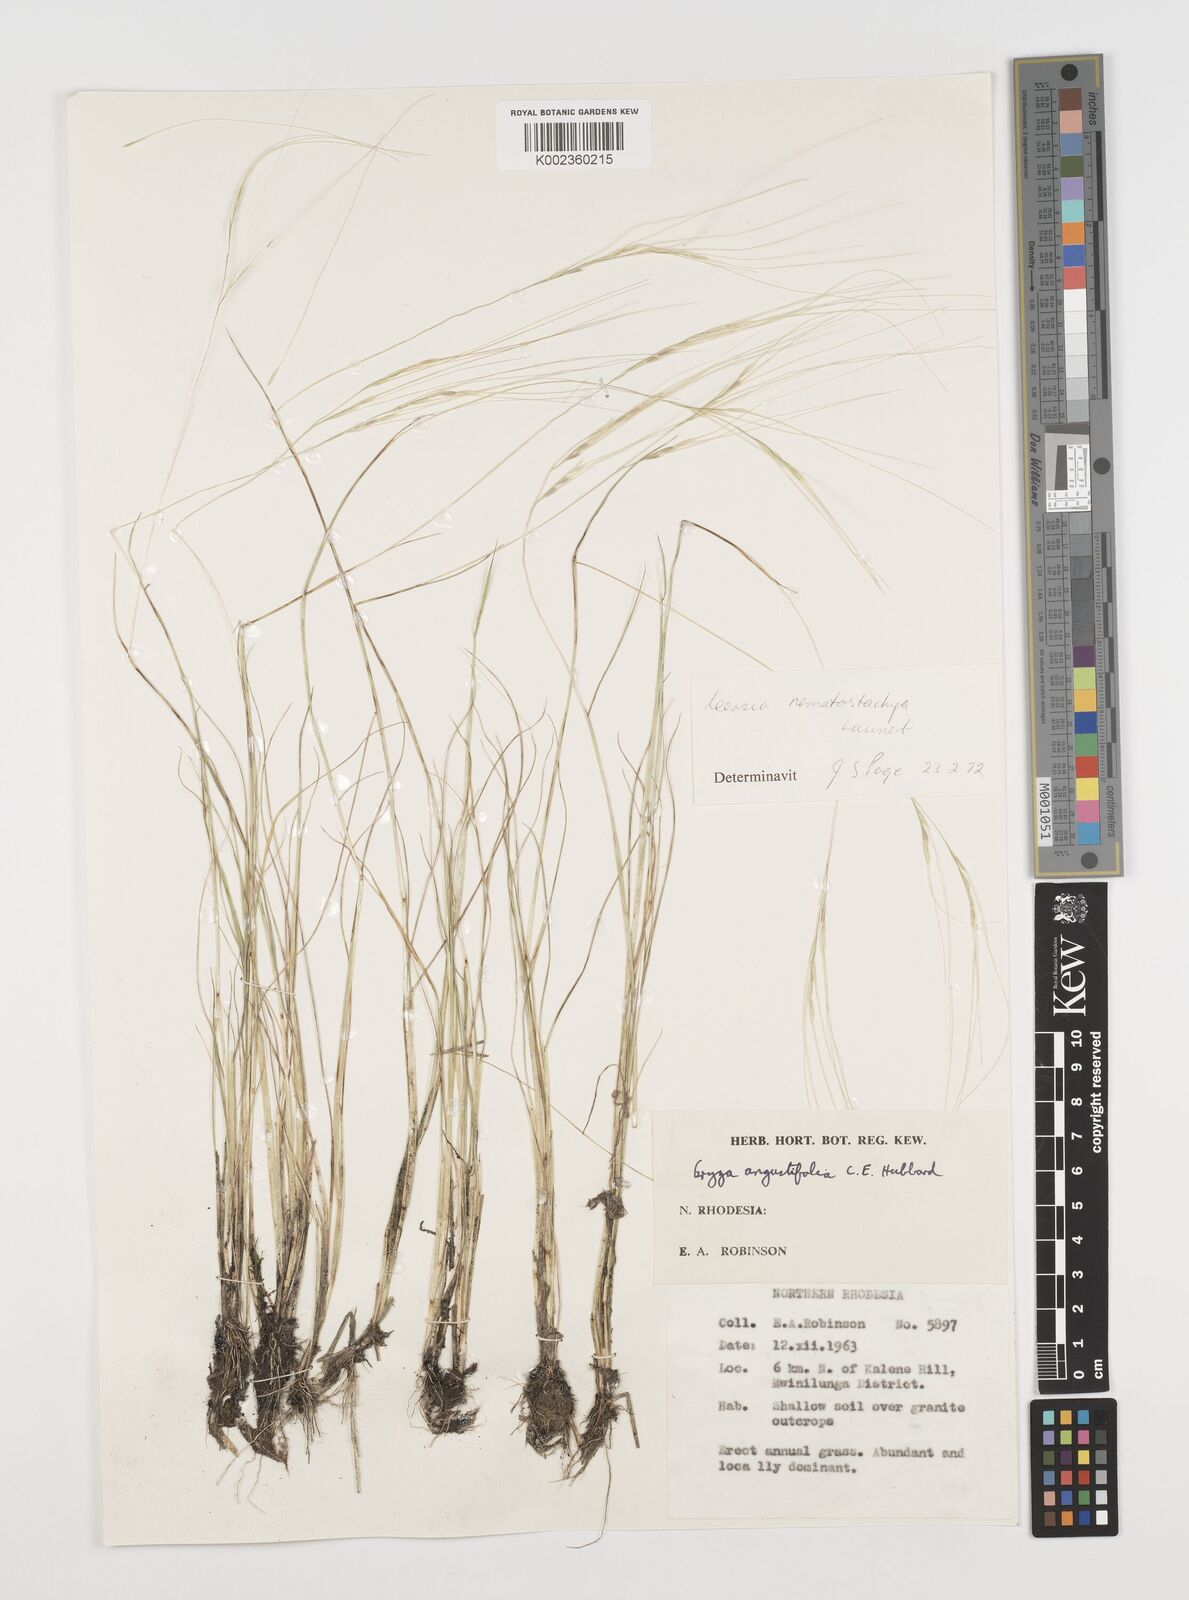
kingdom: Plantae
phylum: Tracheophyta
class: Liliopsida
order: Poales
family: Poaceae
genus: Leersia
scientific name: Leersia nematostachya
